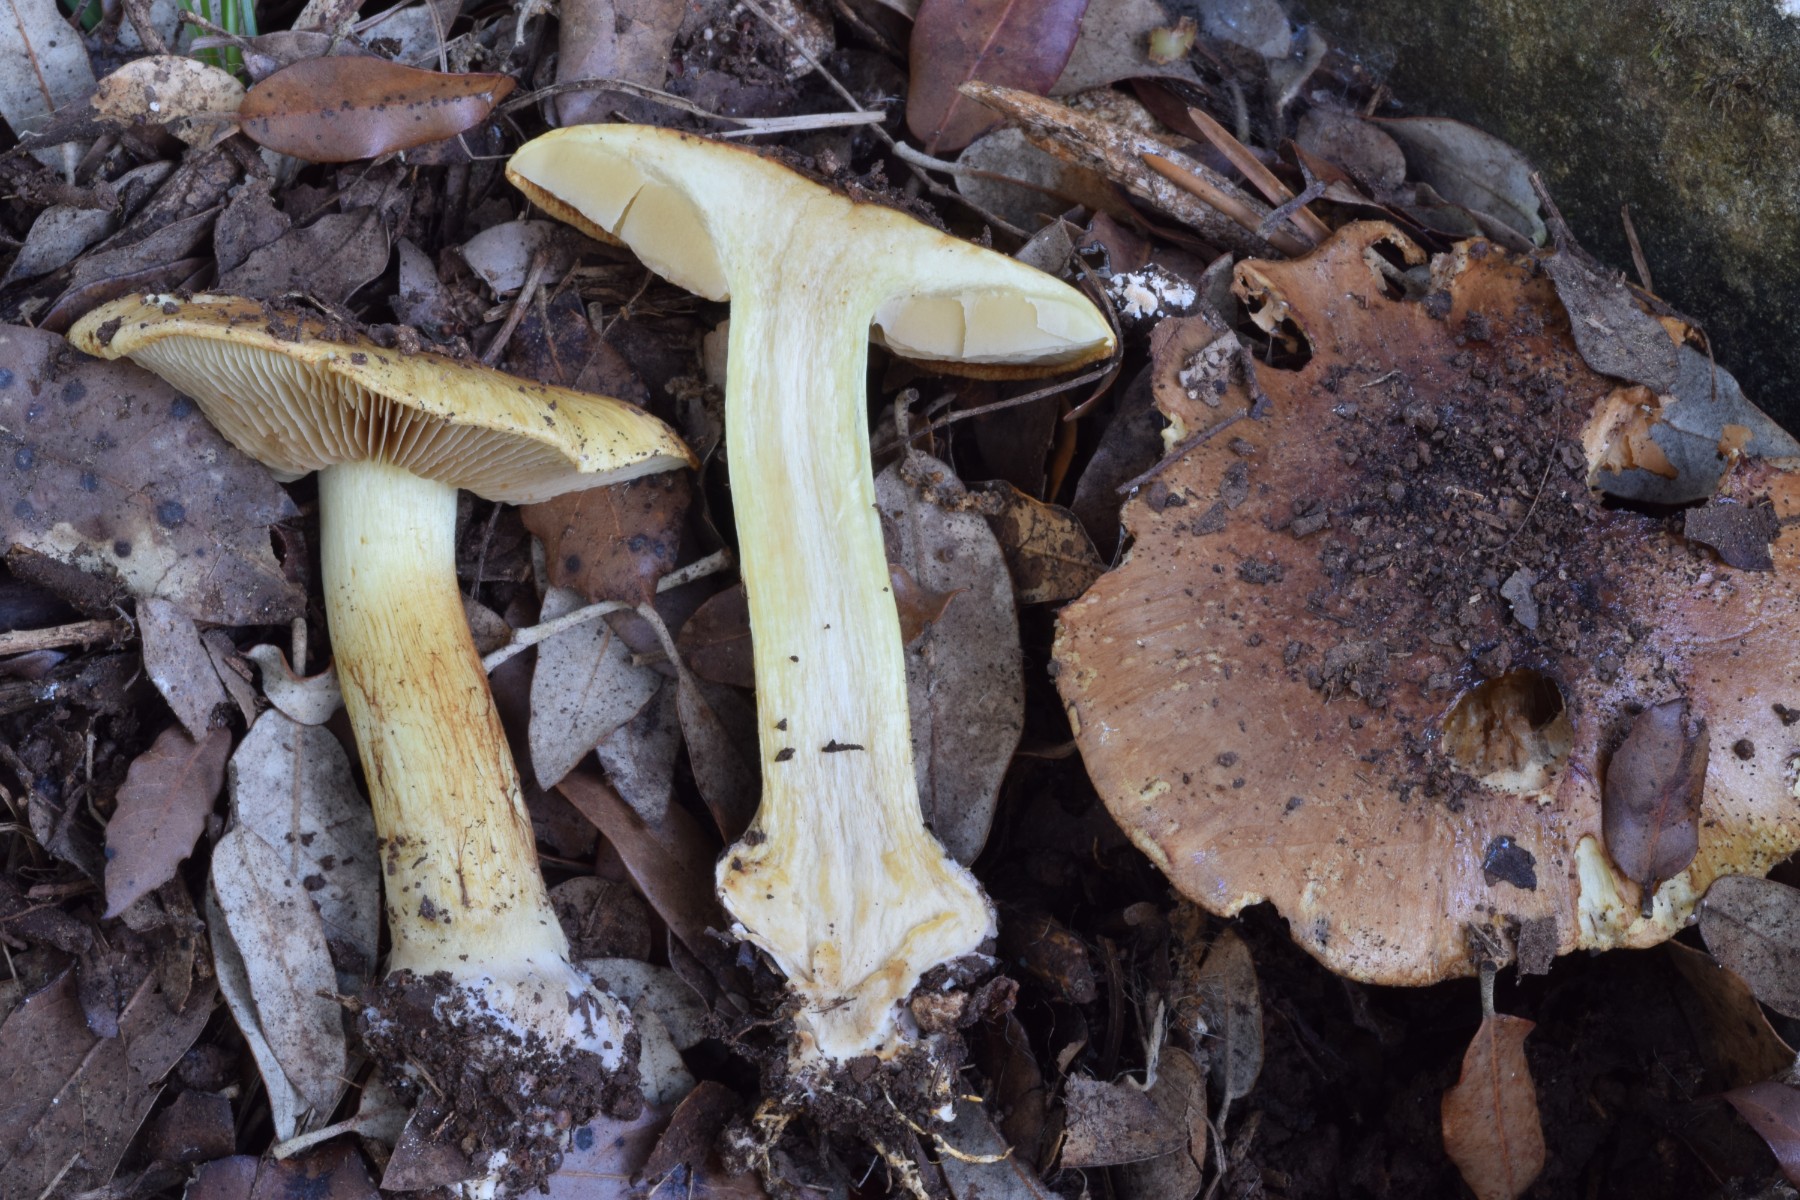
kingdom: Fungi
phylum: Basidiomycota
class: Agaricomycetes
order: Agaricales
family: Cortinariaceae
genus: Phlegmacium
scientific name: Phlegmacium aurilicis
